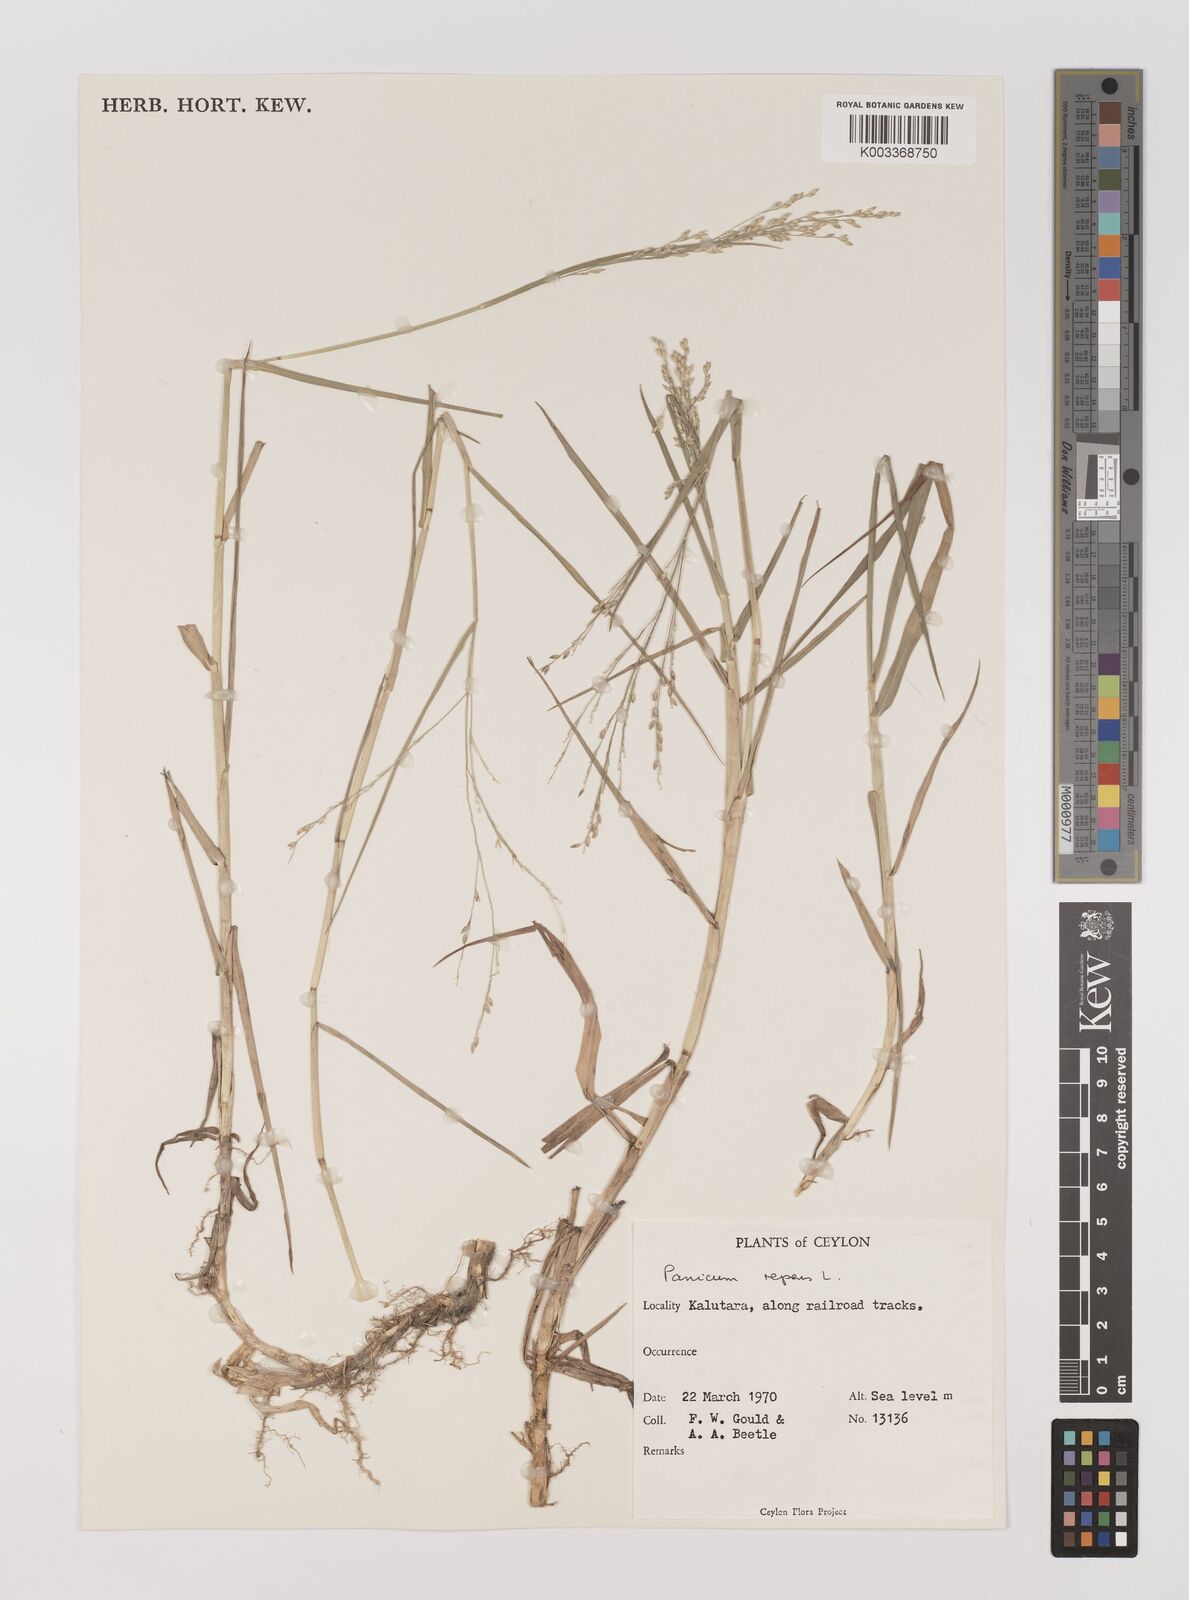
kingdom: Plantae
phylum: Tracheophyta
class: Liliopsida
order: Poales
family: Poaceae
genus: Panicum
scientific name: Panicum repens
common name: Torpedo grass
